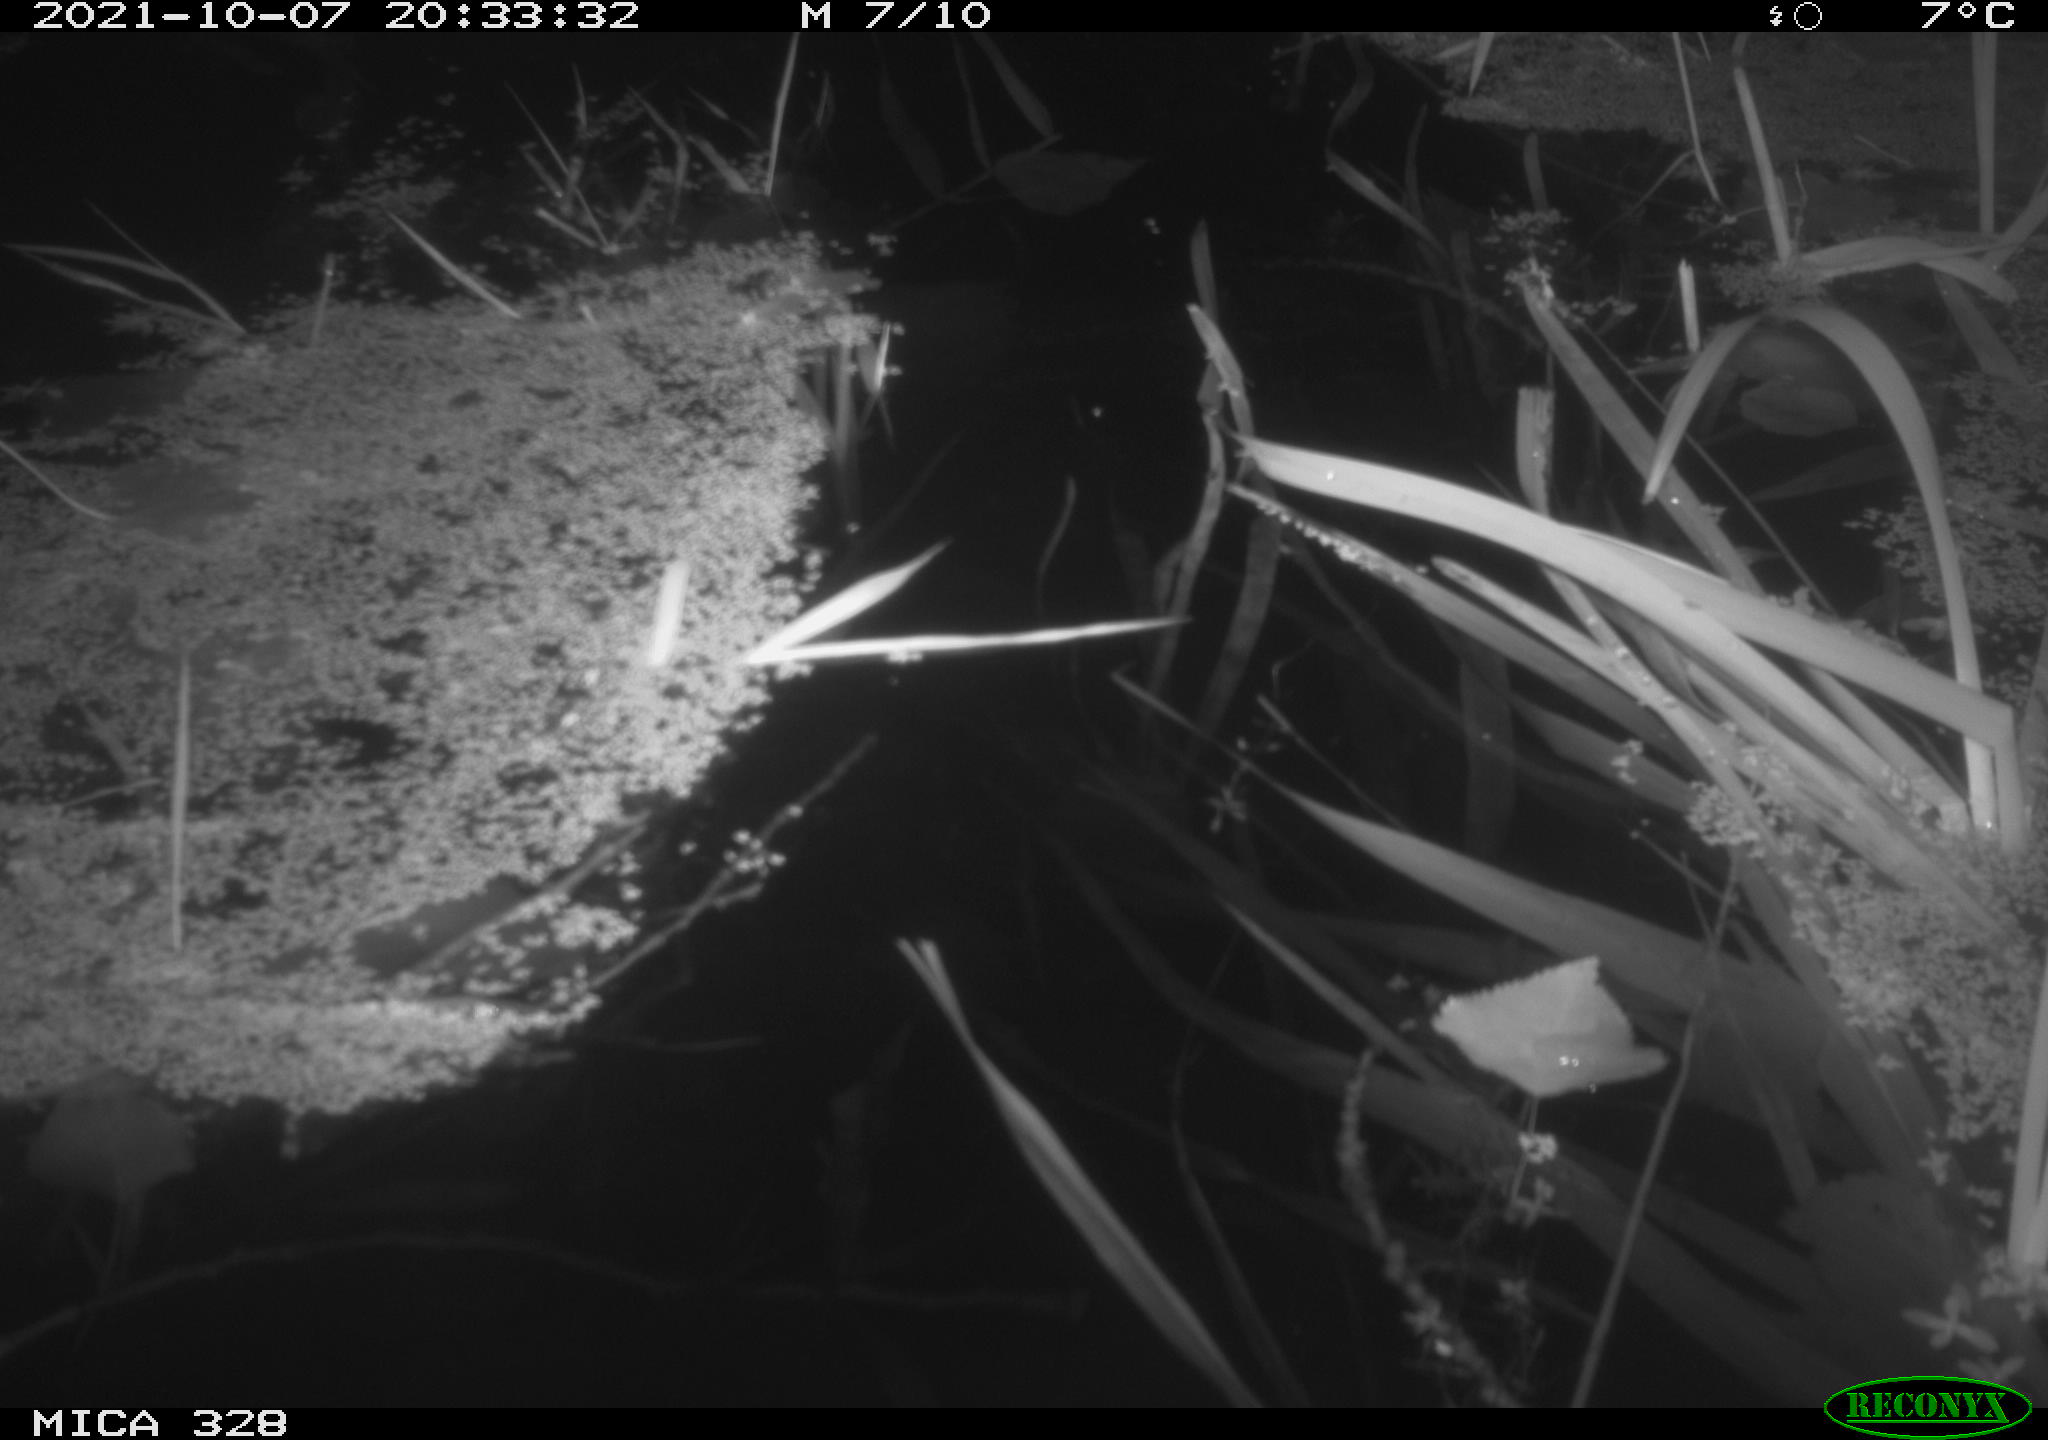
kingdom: Animalia
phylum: Chordata
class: Mammalia
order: Rodentia
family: Cricetidae
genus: Ondatra
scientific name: Ondatra zibethicus
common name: Muskrat
